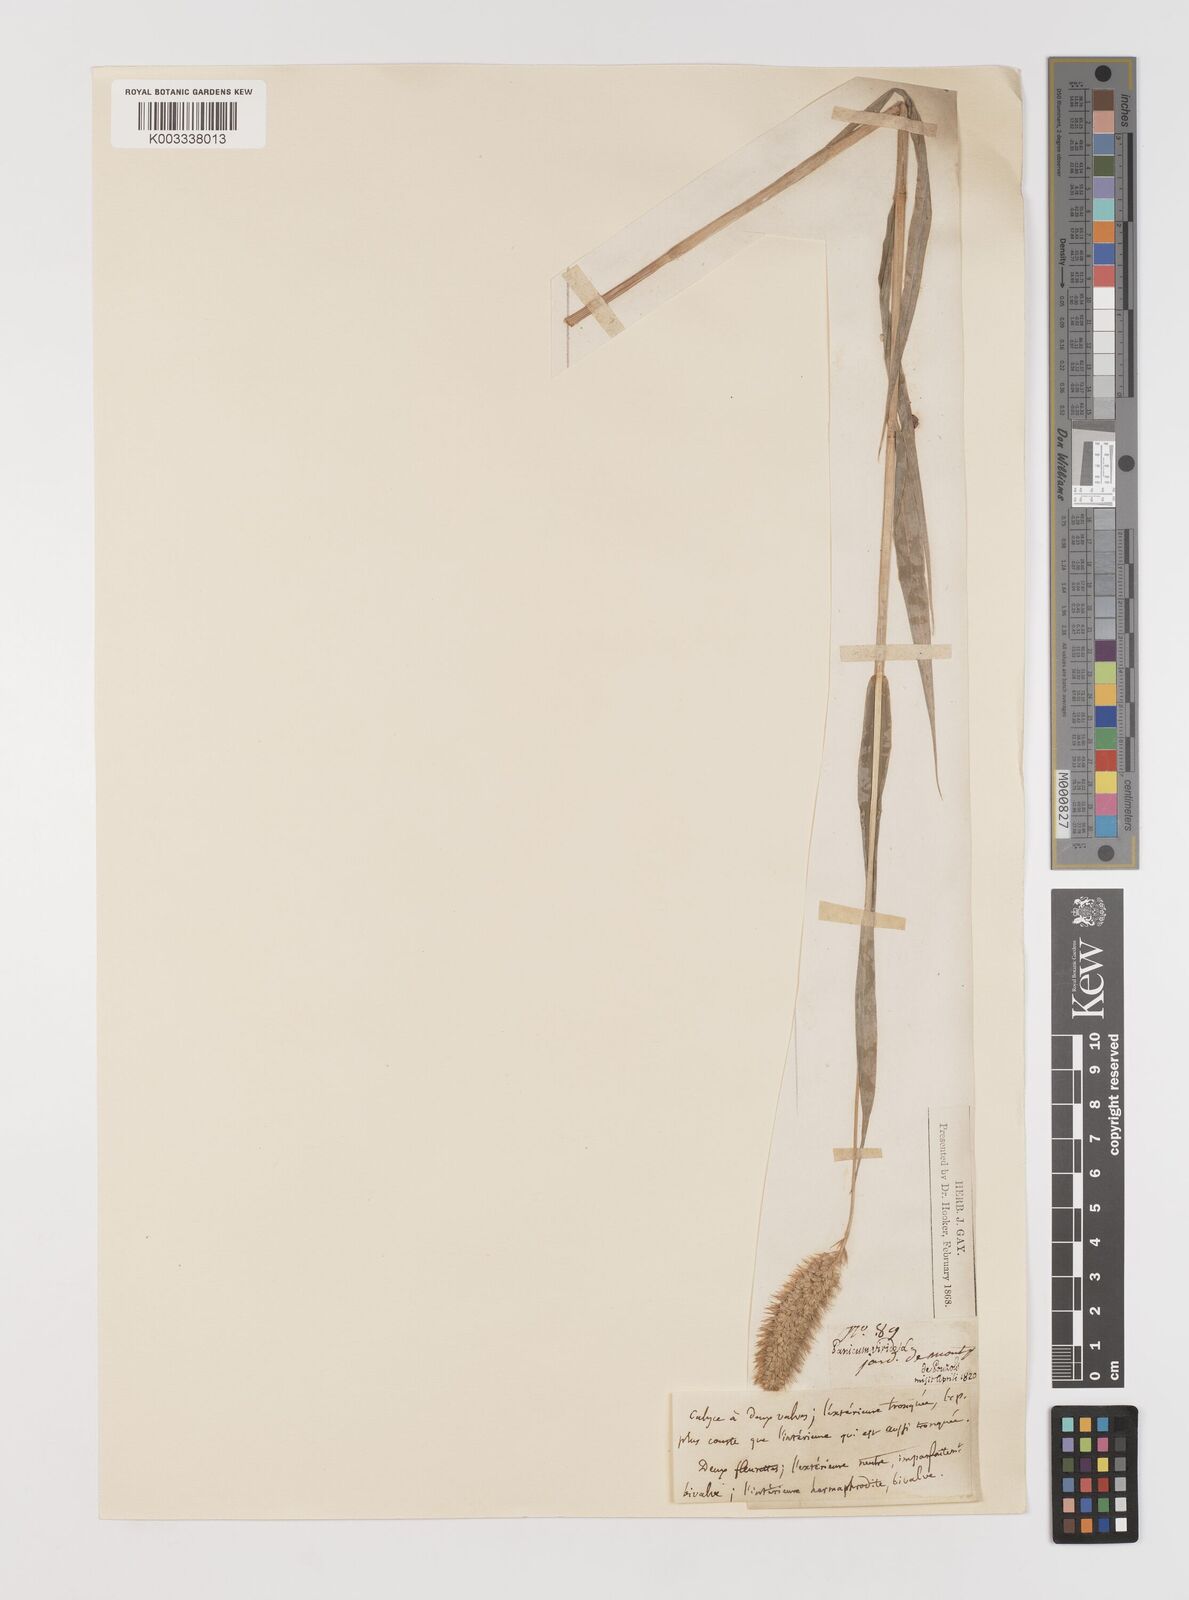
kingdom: Plantae
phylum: Tracheophyta
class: Liliopsida
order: Poales
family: Poaceae
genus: Setaria
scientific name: Setaria italica
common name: Foxtail bristle-grass
